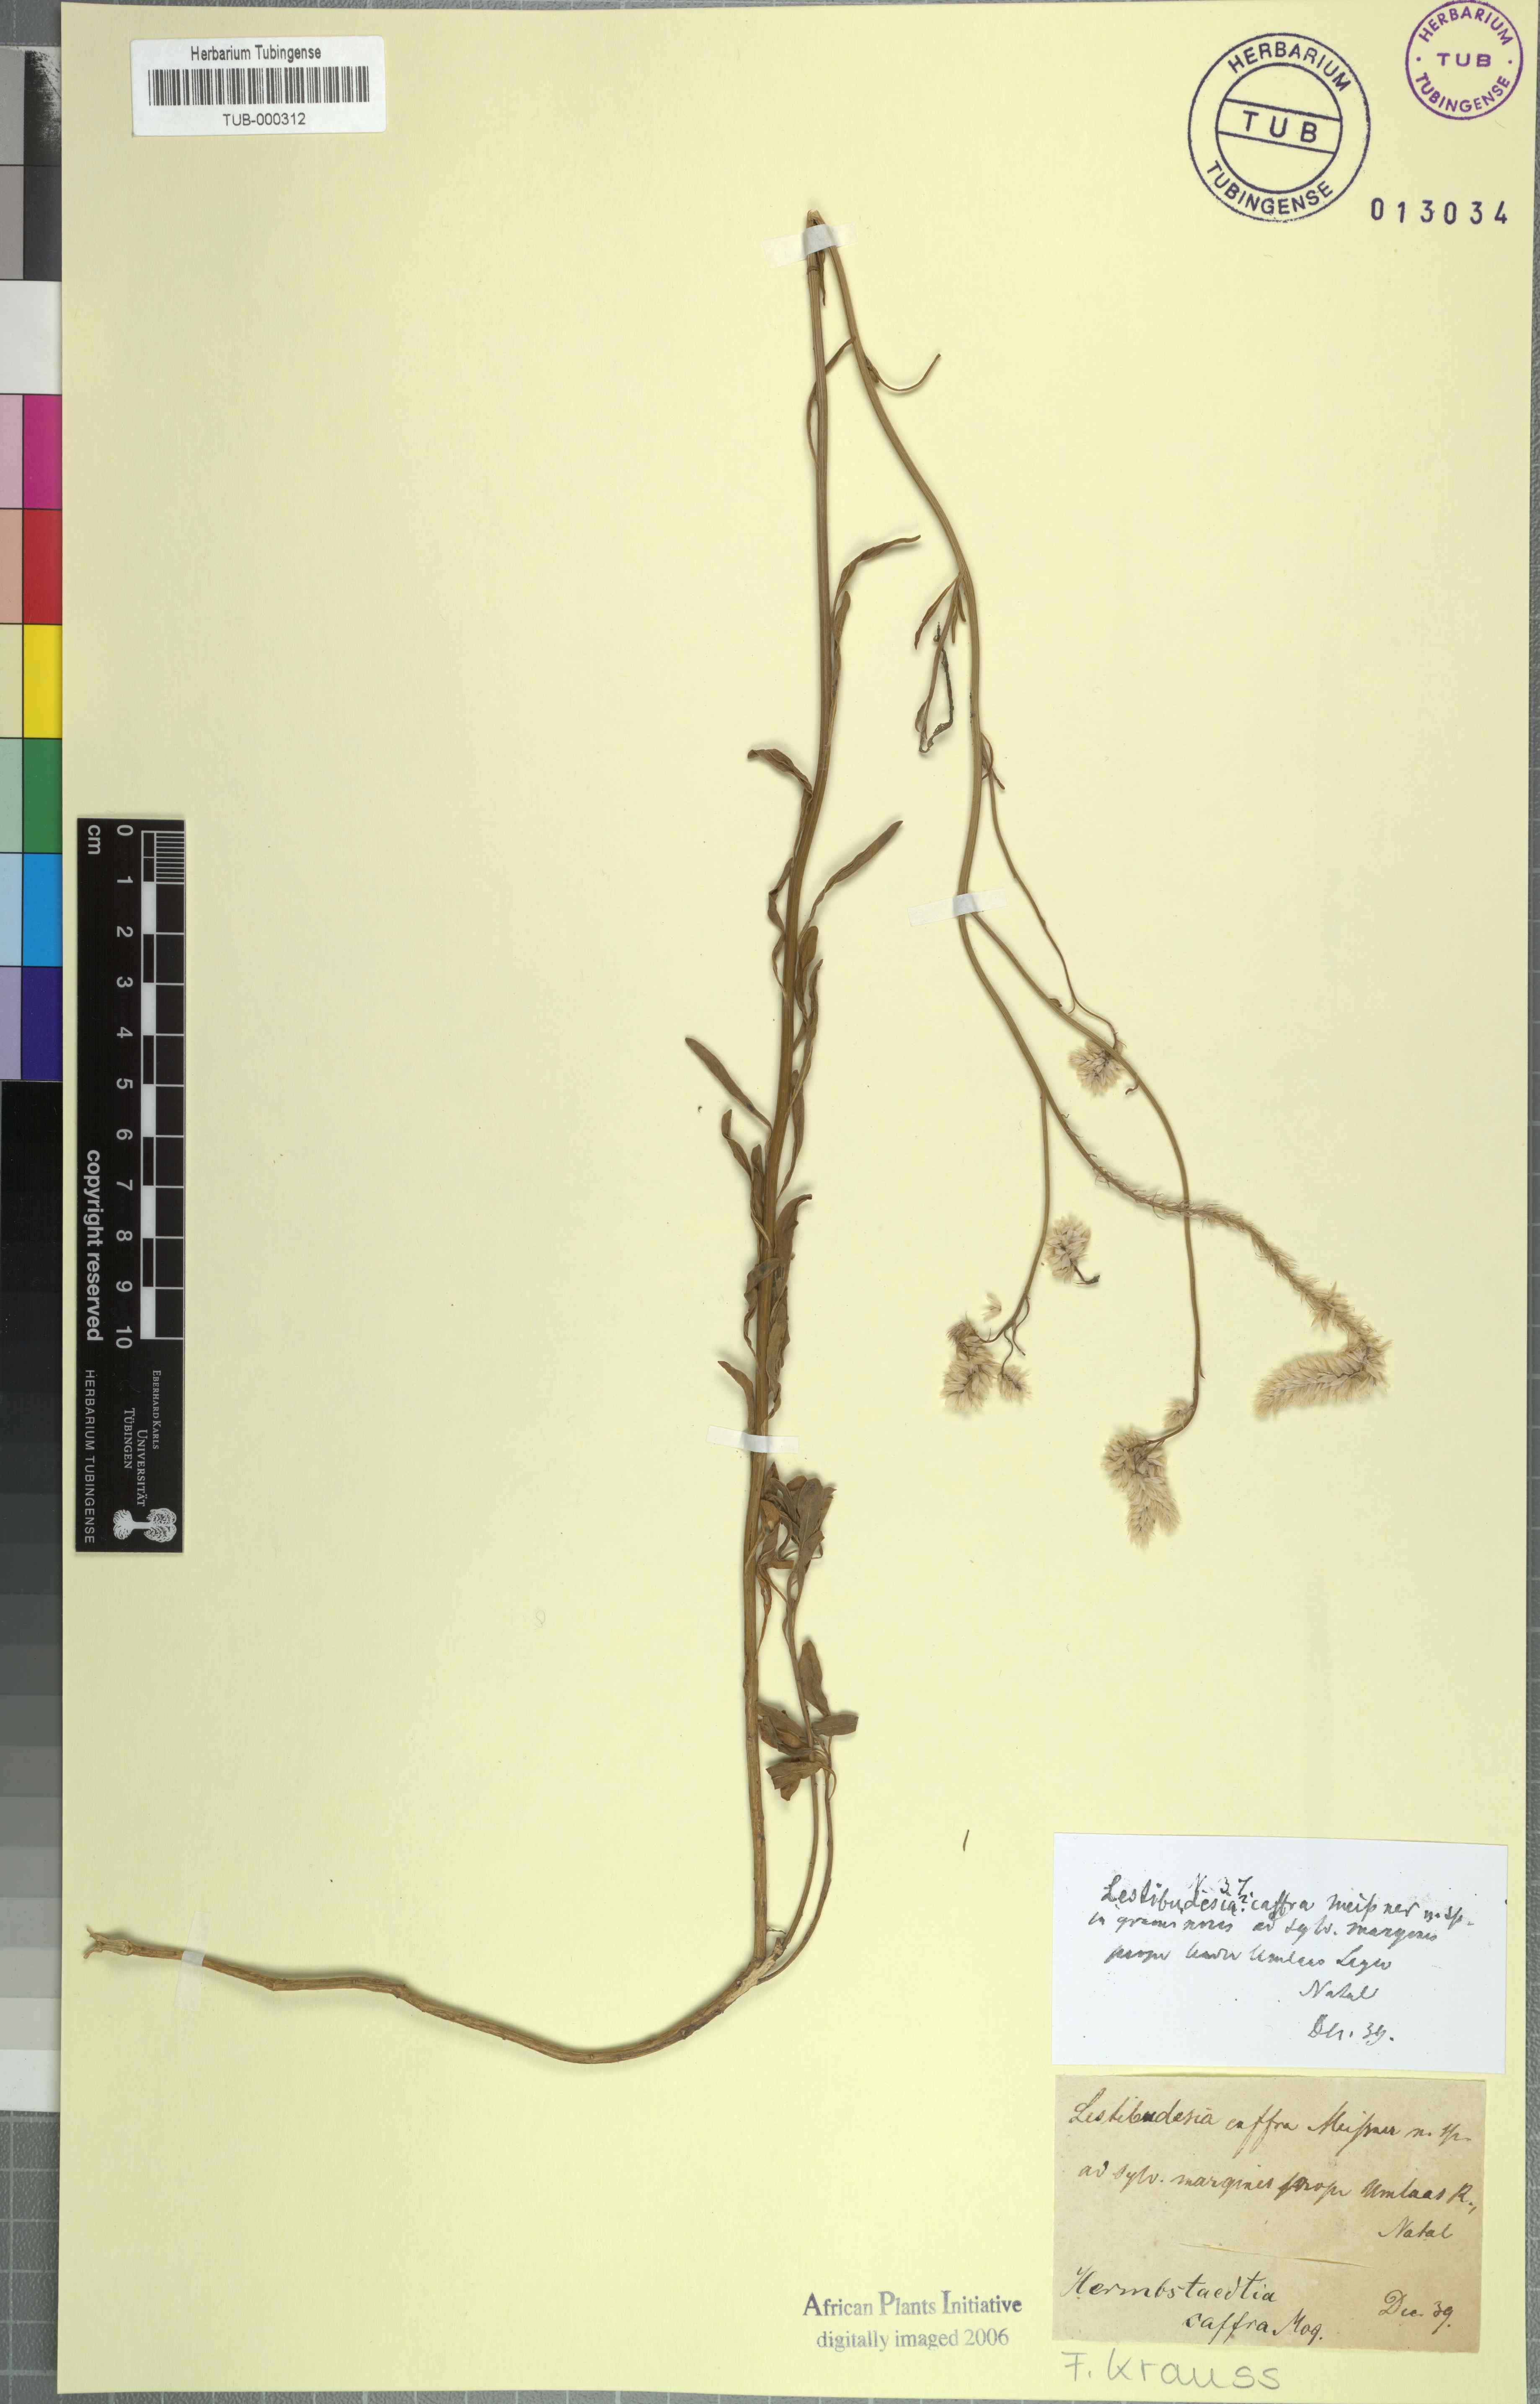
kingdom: Plantae
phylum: Tracheophyta
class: Magnoliopsida
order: Caryophyllales
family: Amaranthaceae
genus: Hermbstaedtia
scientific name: Hermbstaedtia caffra
